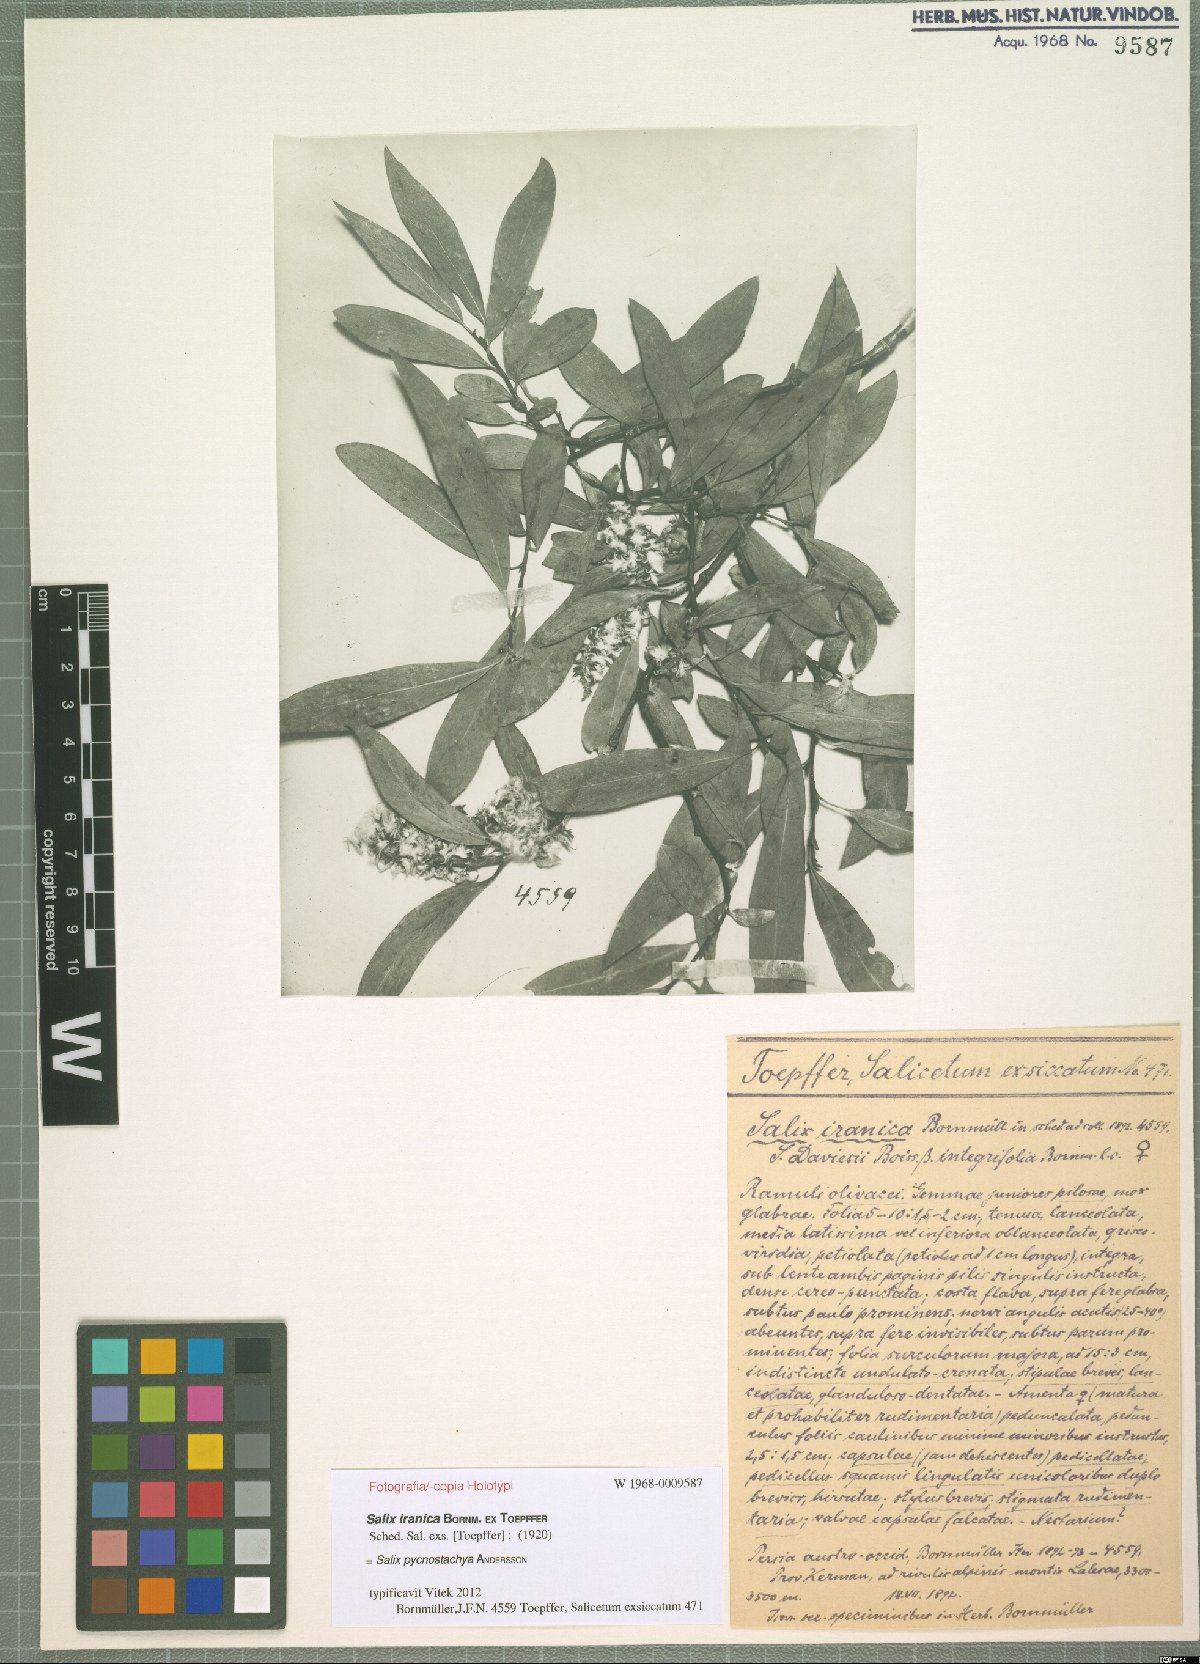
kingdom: Plantae
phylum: Tracheophyta
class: Magnoliopsida
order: Malpighiales
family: Salicaceae
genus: Salix
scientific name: Salix sericocarpa
